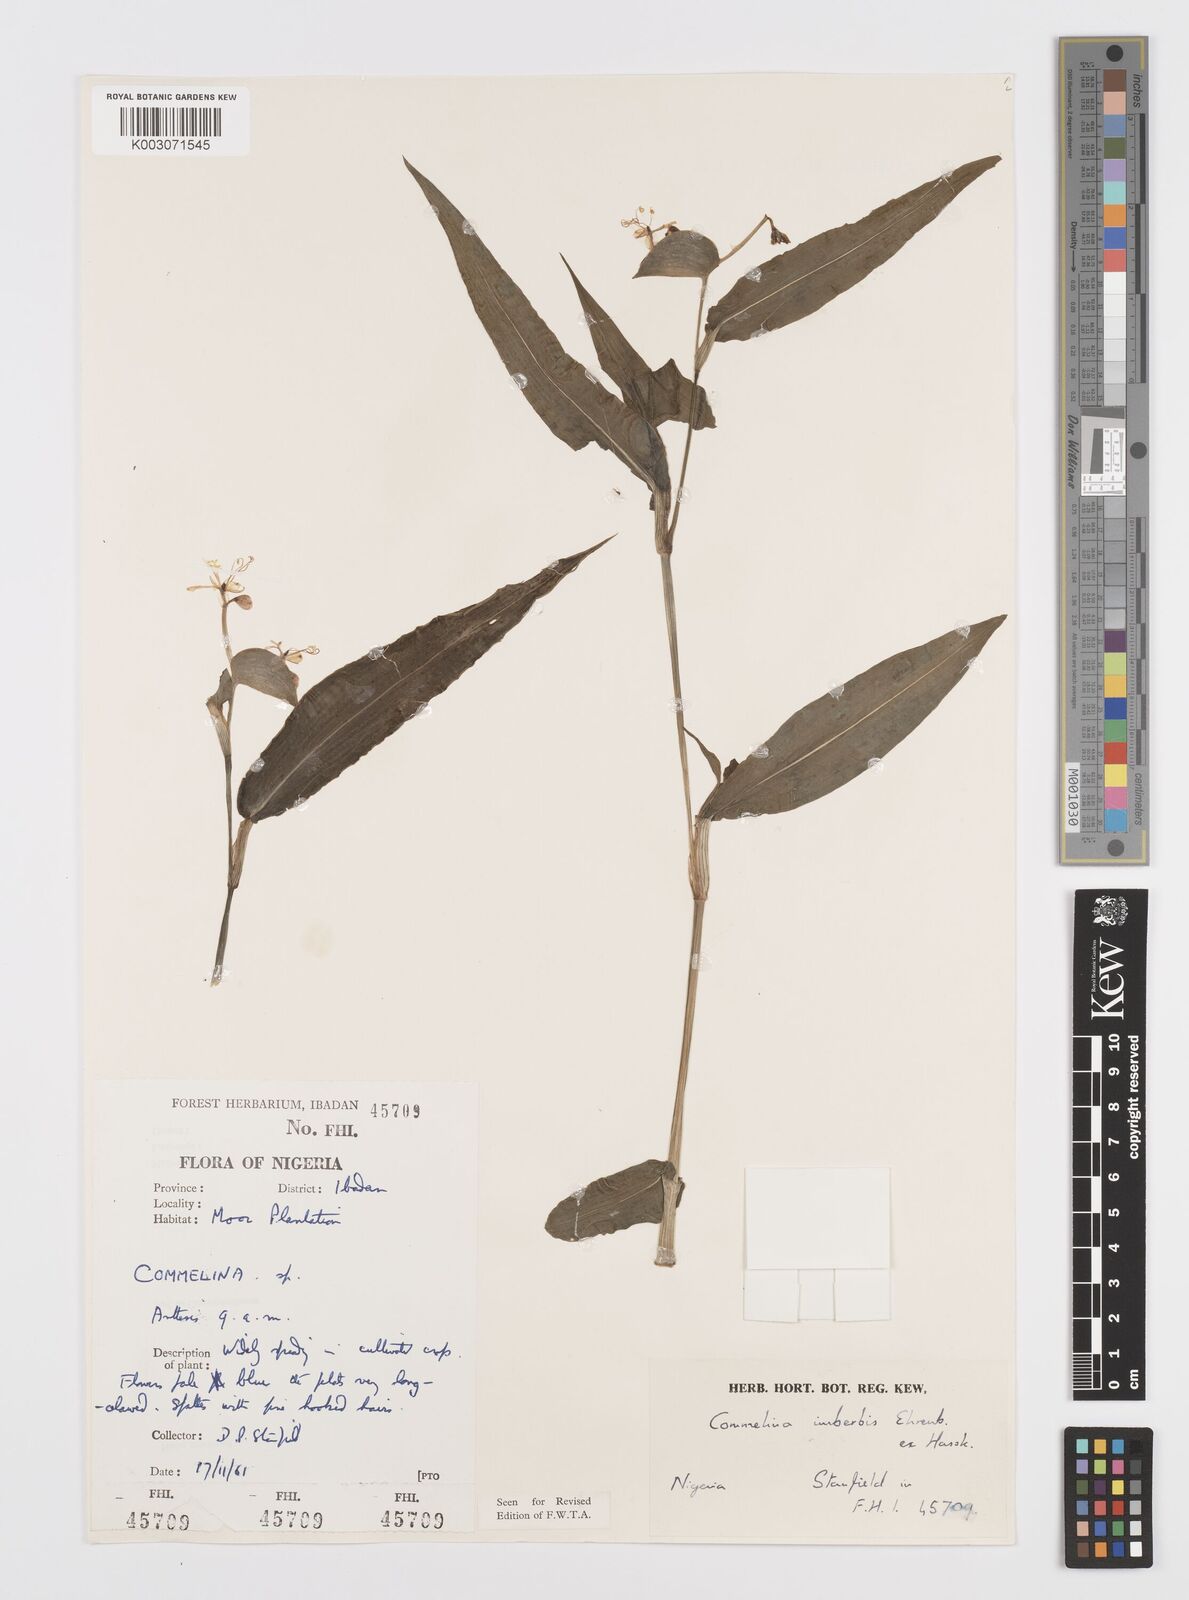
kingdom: Plantae
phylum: Tracheophyta
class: Liliopsida
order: Commelinales
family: Commelinaceae
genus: Commelina
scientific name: Commelina imberbis
